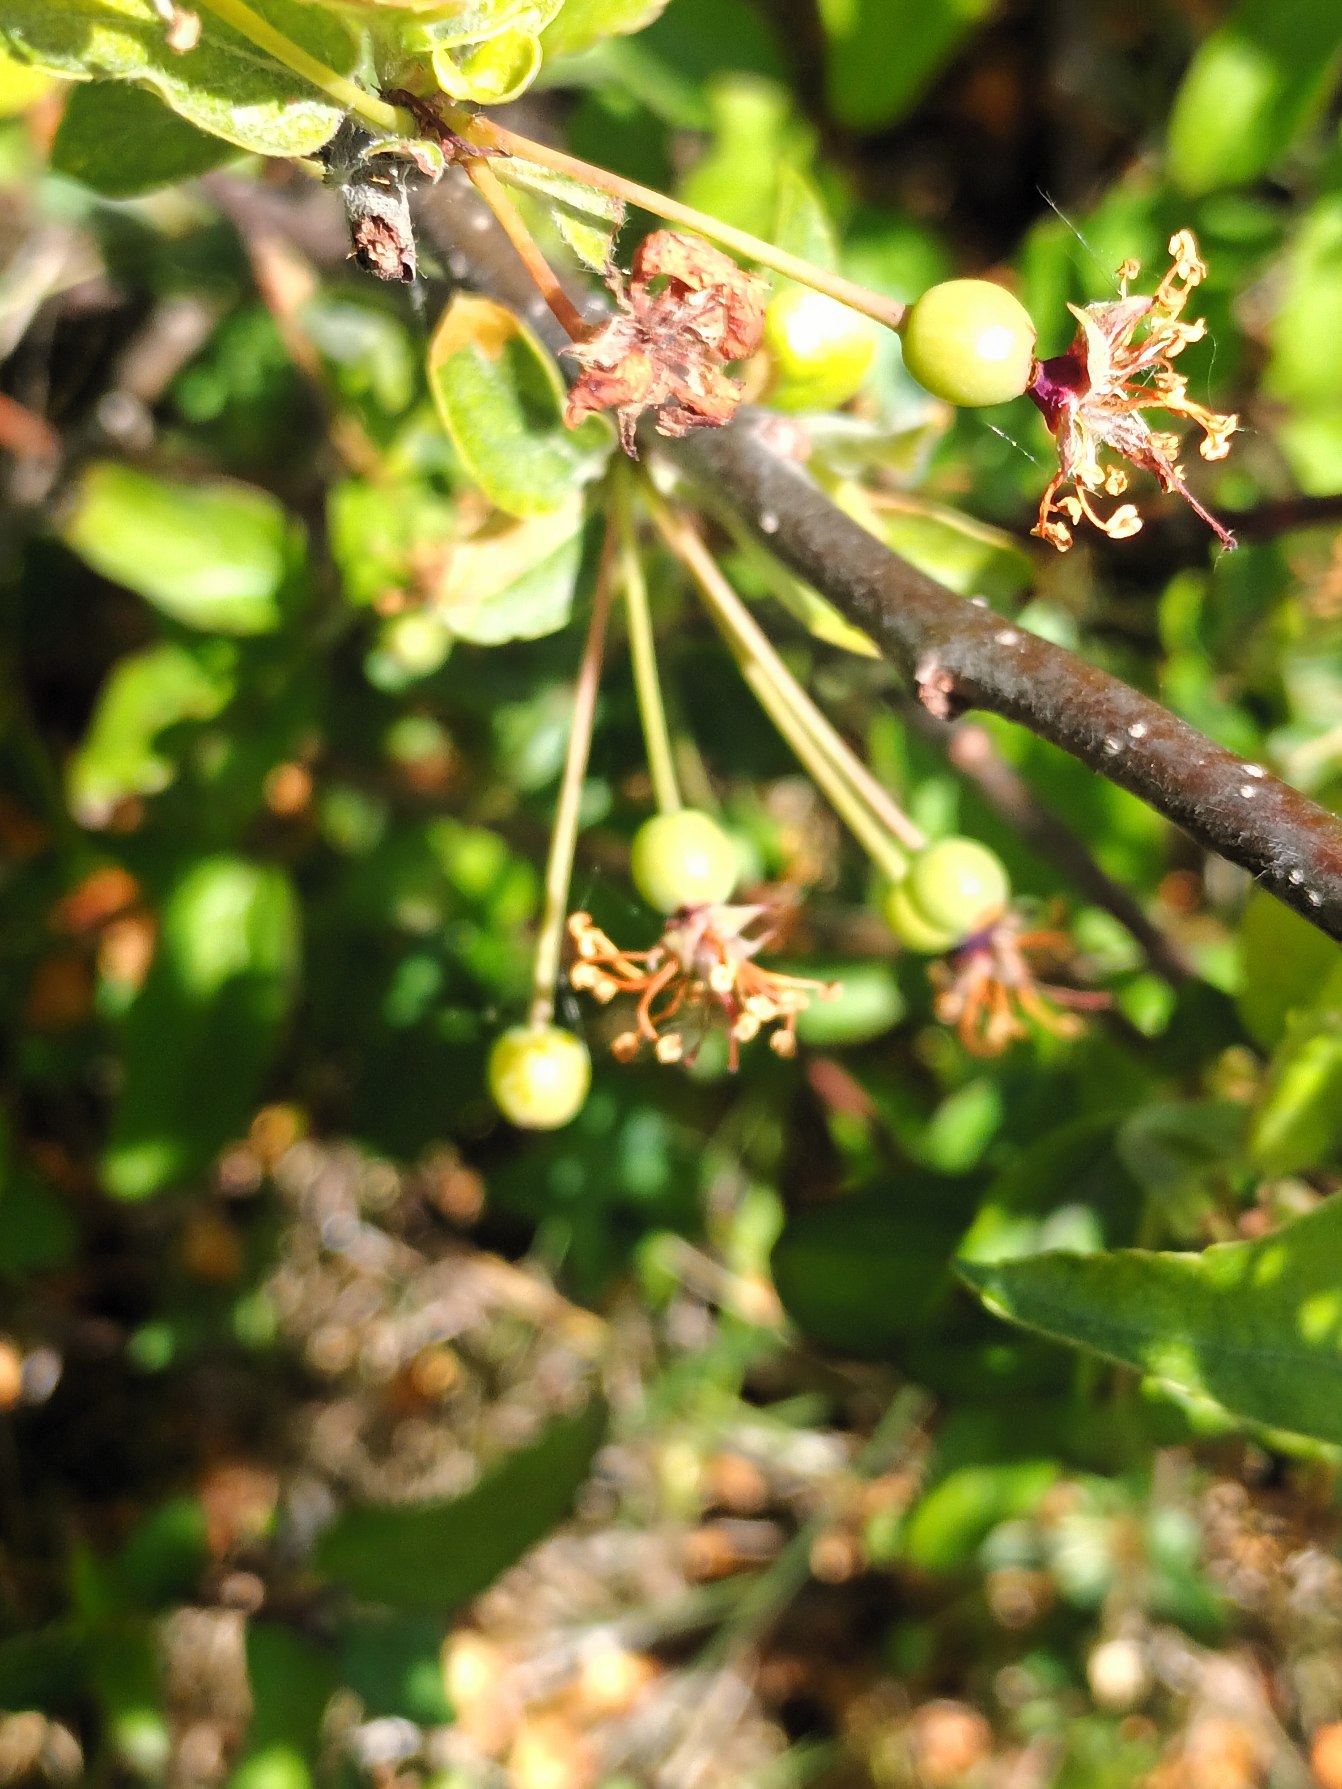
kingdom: Plantae
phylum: Tracheophyta
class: Magnoliopsida
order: Rosales
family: Rosaceae
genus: Malus
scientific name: Malus toringo
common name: Sargents-æble
